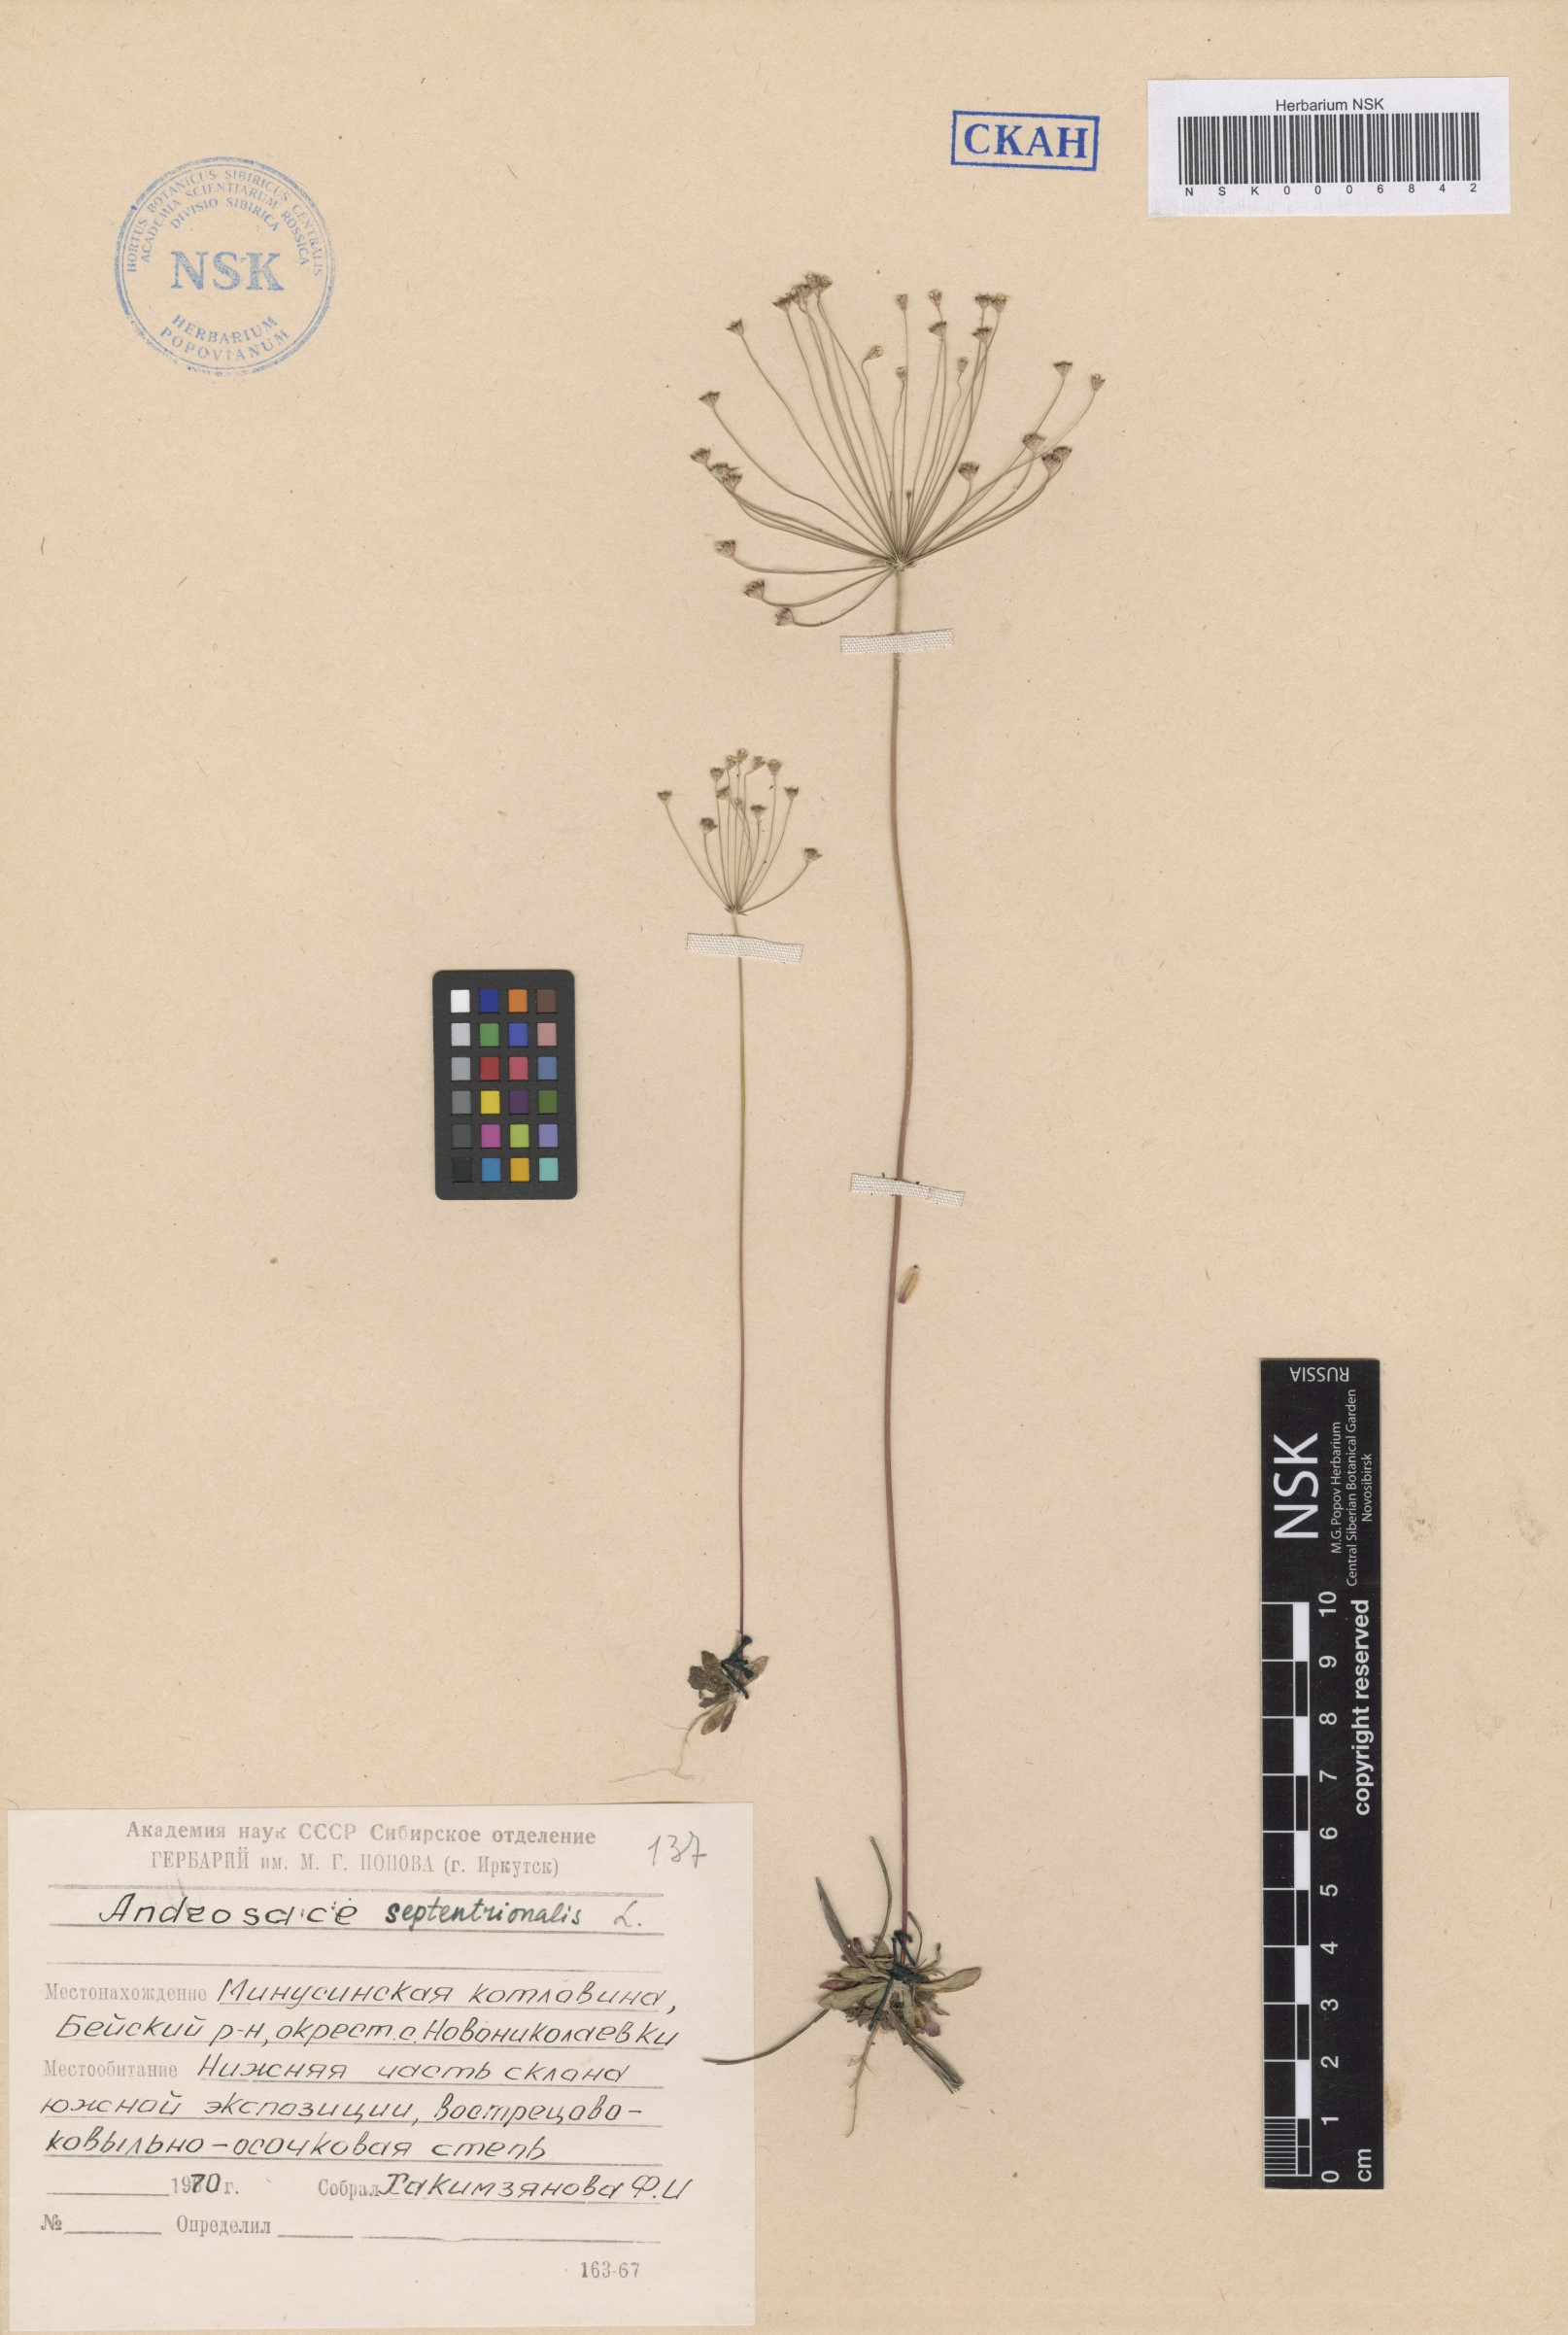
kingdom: Plantae
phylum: Tracheophyta
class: Magnoliopsida
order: Ericales
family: Primulaceae
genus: Androsace
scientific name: Androsace septentrionalis
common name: Hairy northern fairy-candelabra
